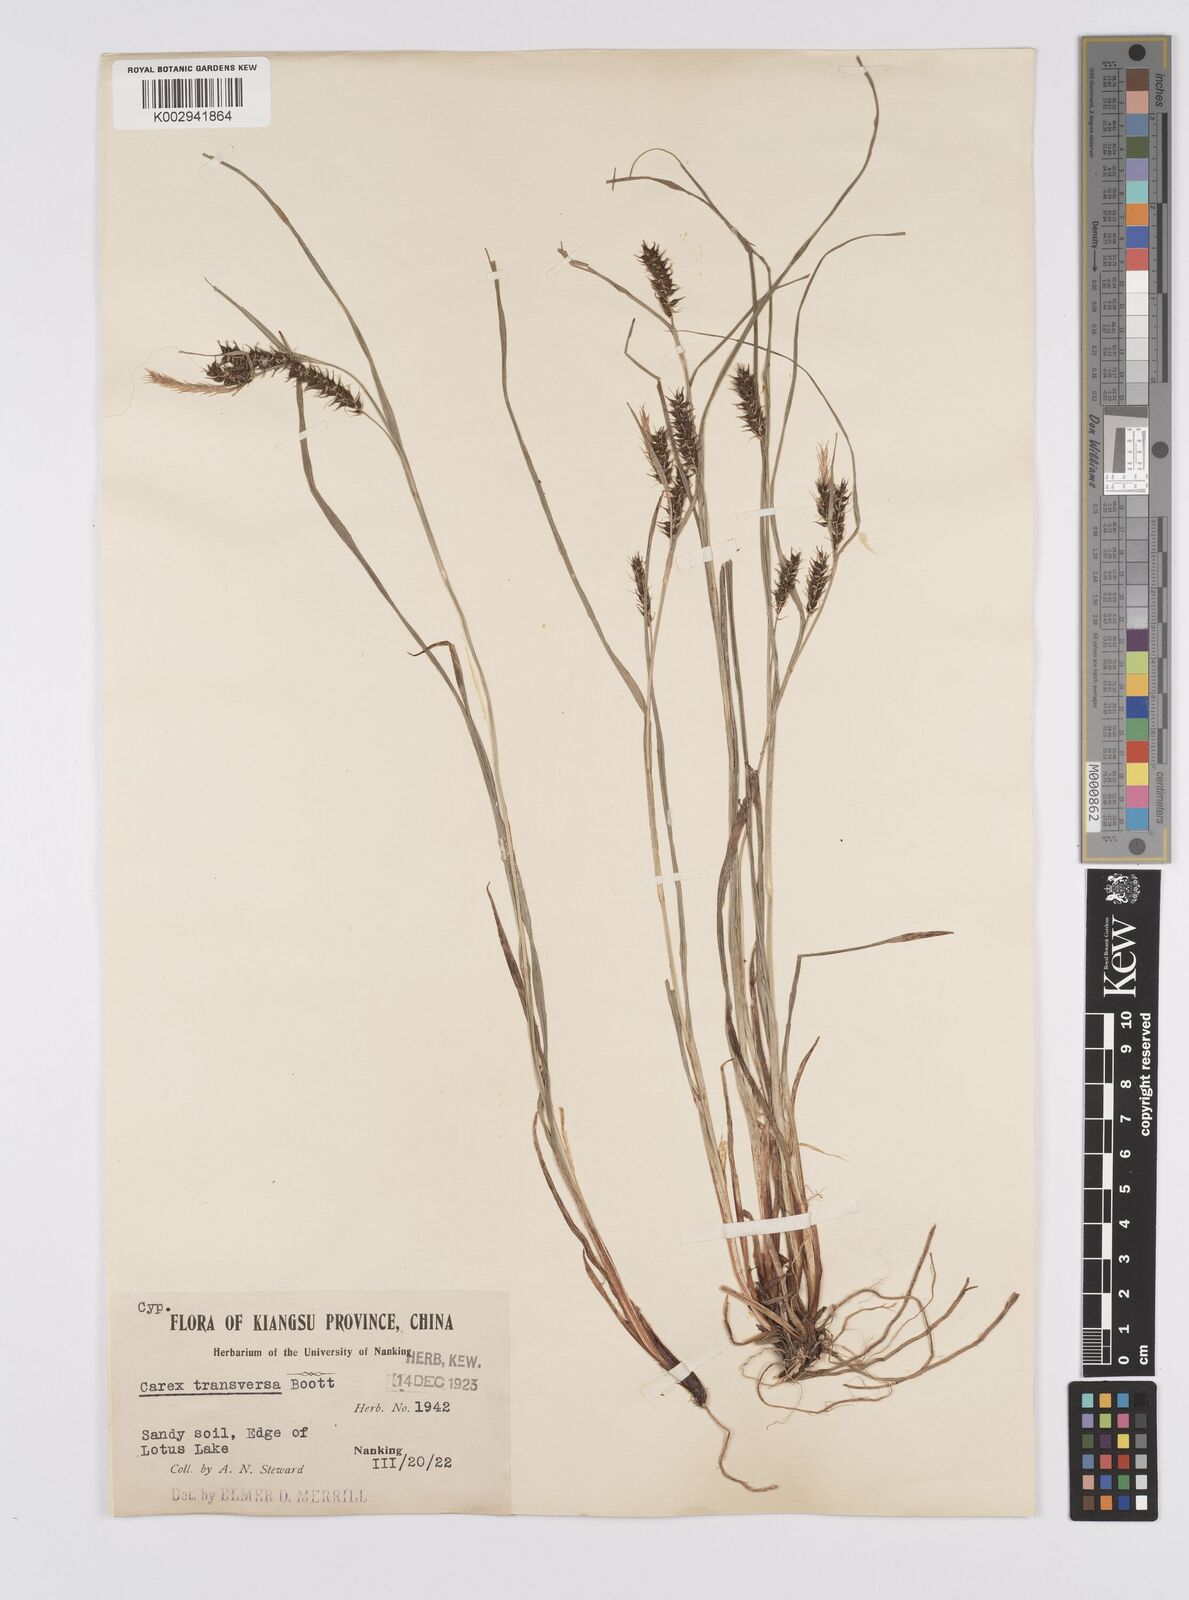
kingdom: Plantae
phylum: Tracheophyta
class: Liliopsida
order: Poales
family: Cyperaceae
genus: Carex
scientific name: Carex brownii
